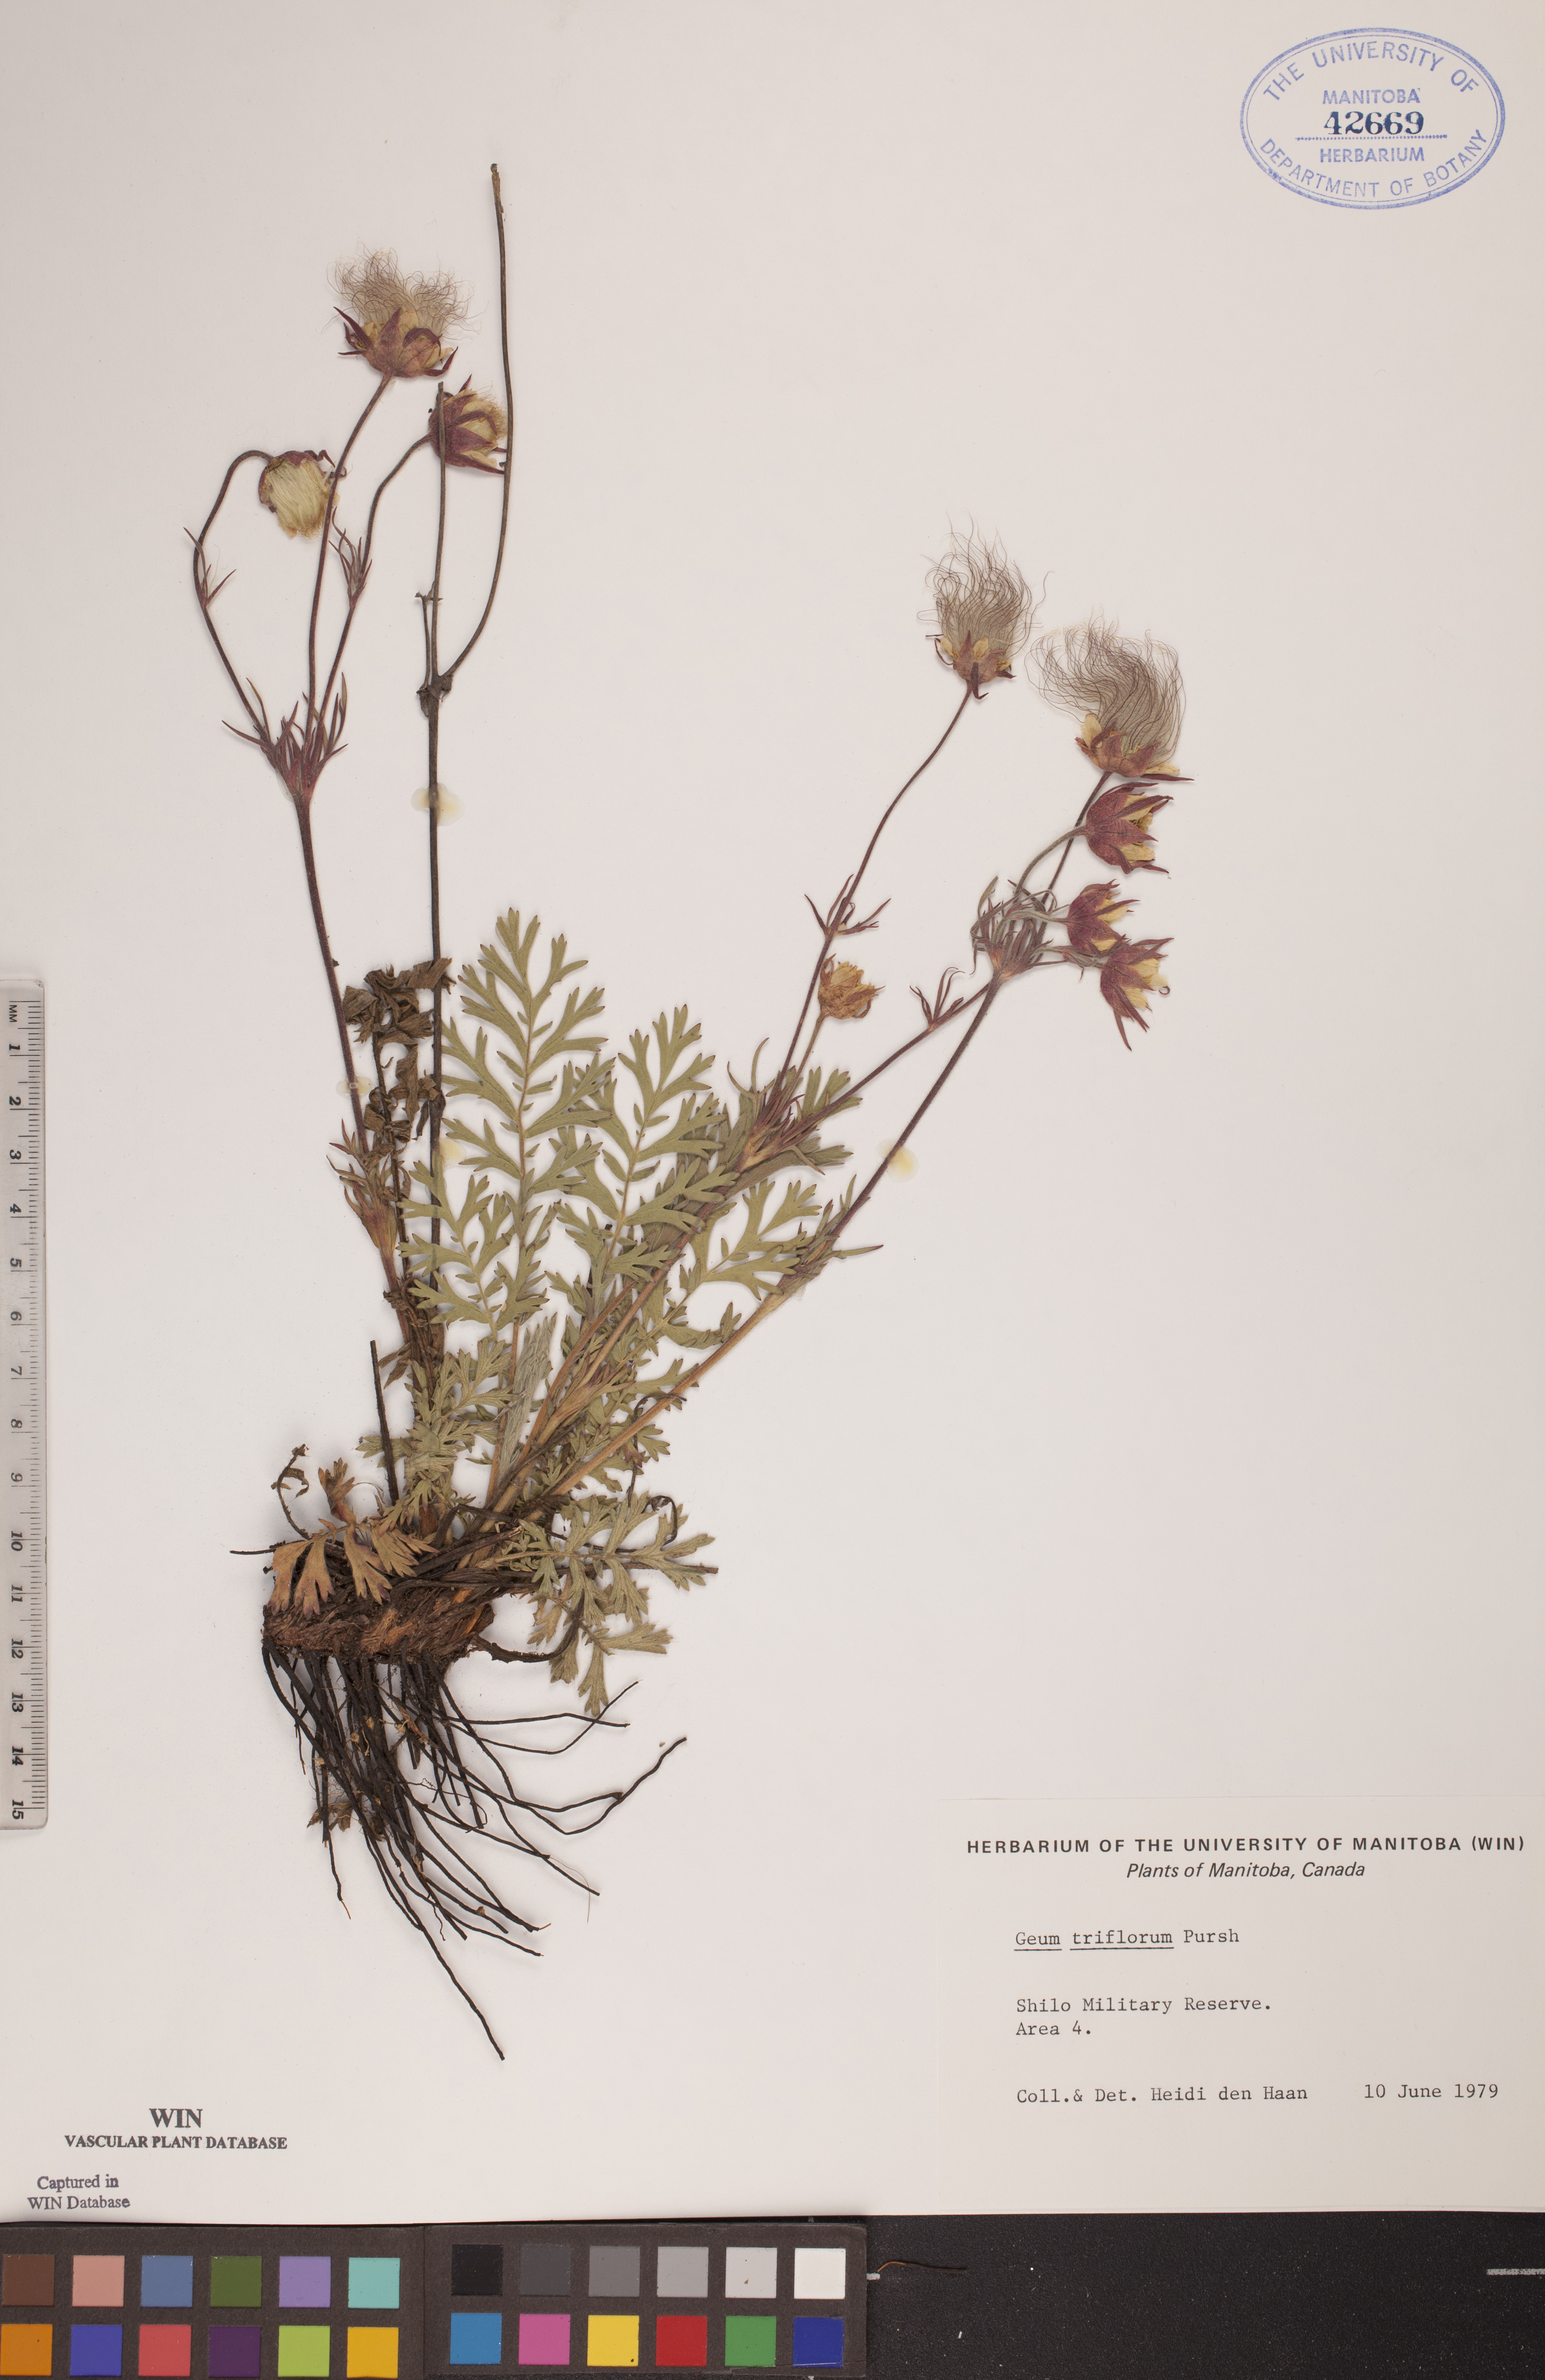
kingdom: Plantae
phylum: Tracheophyta
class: Magnoliopsida
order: Rosales
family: Rosaceae
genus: Geum
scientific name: Geum triflorum
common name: Old man's whiskers
